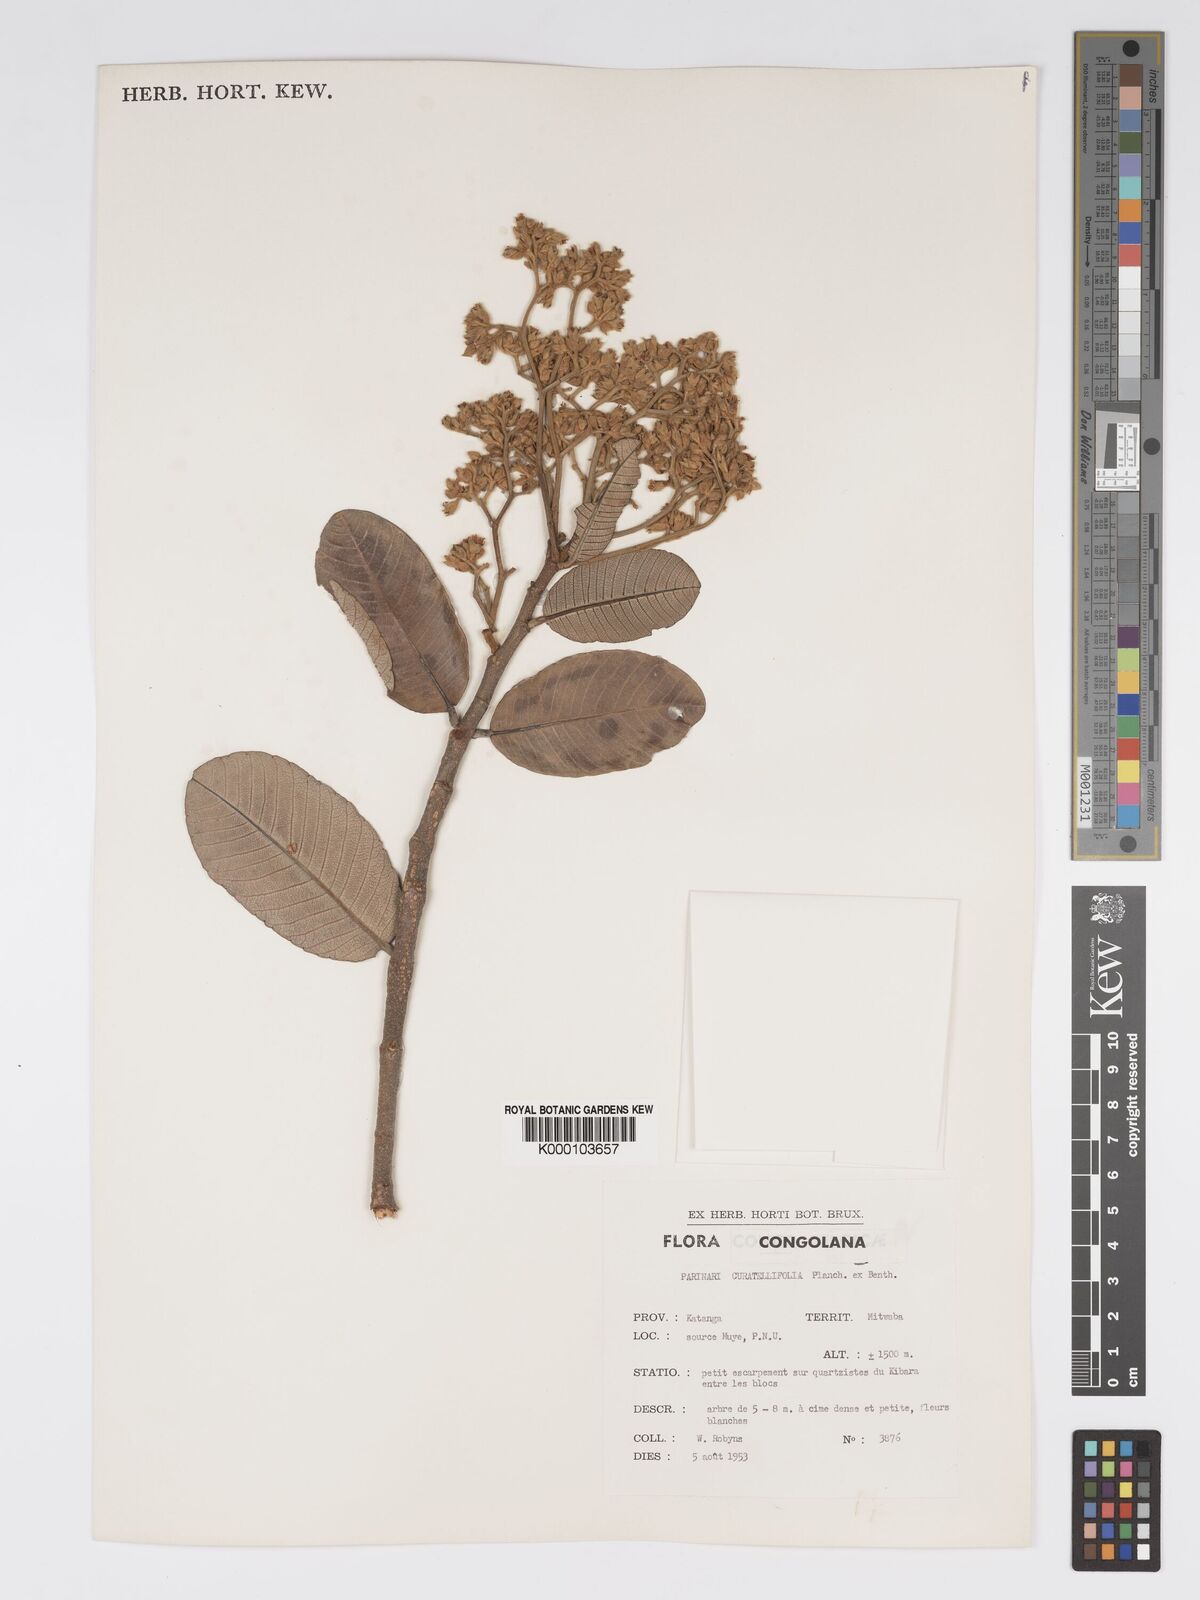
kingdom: Plantae
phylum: Tracheophyta
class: Magnoliopsida
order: Malpighiales
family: Chrysobalanaceae
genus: Parinari
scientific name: Parinari curatellifolia
